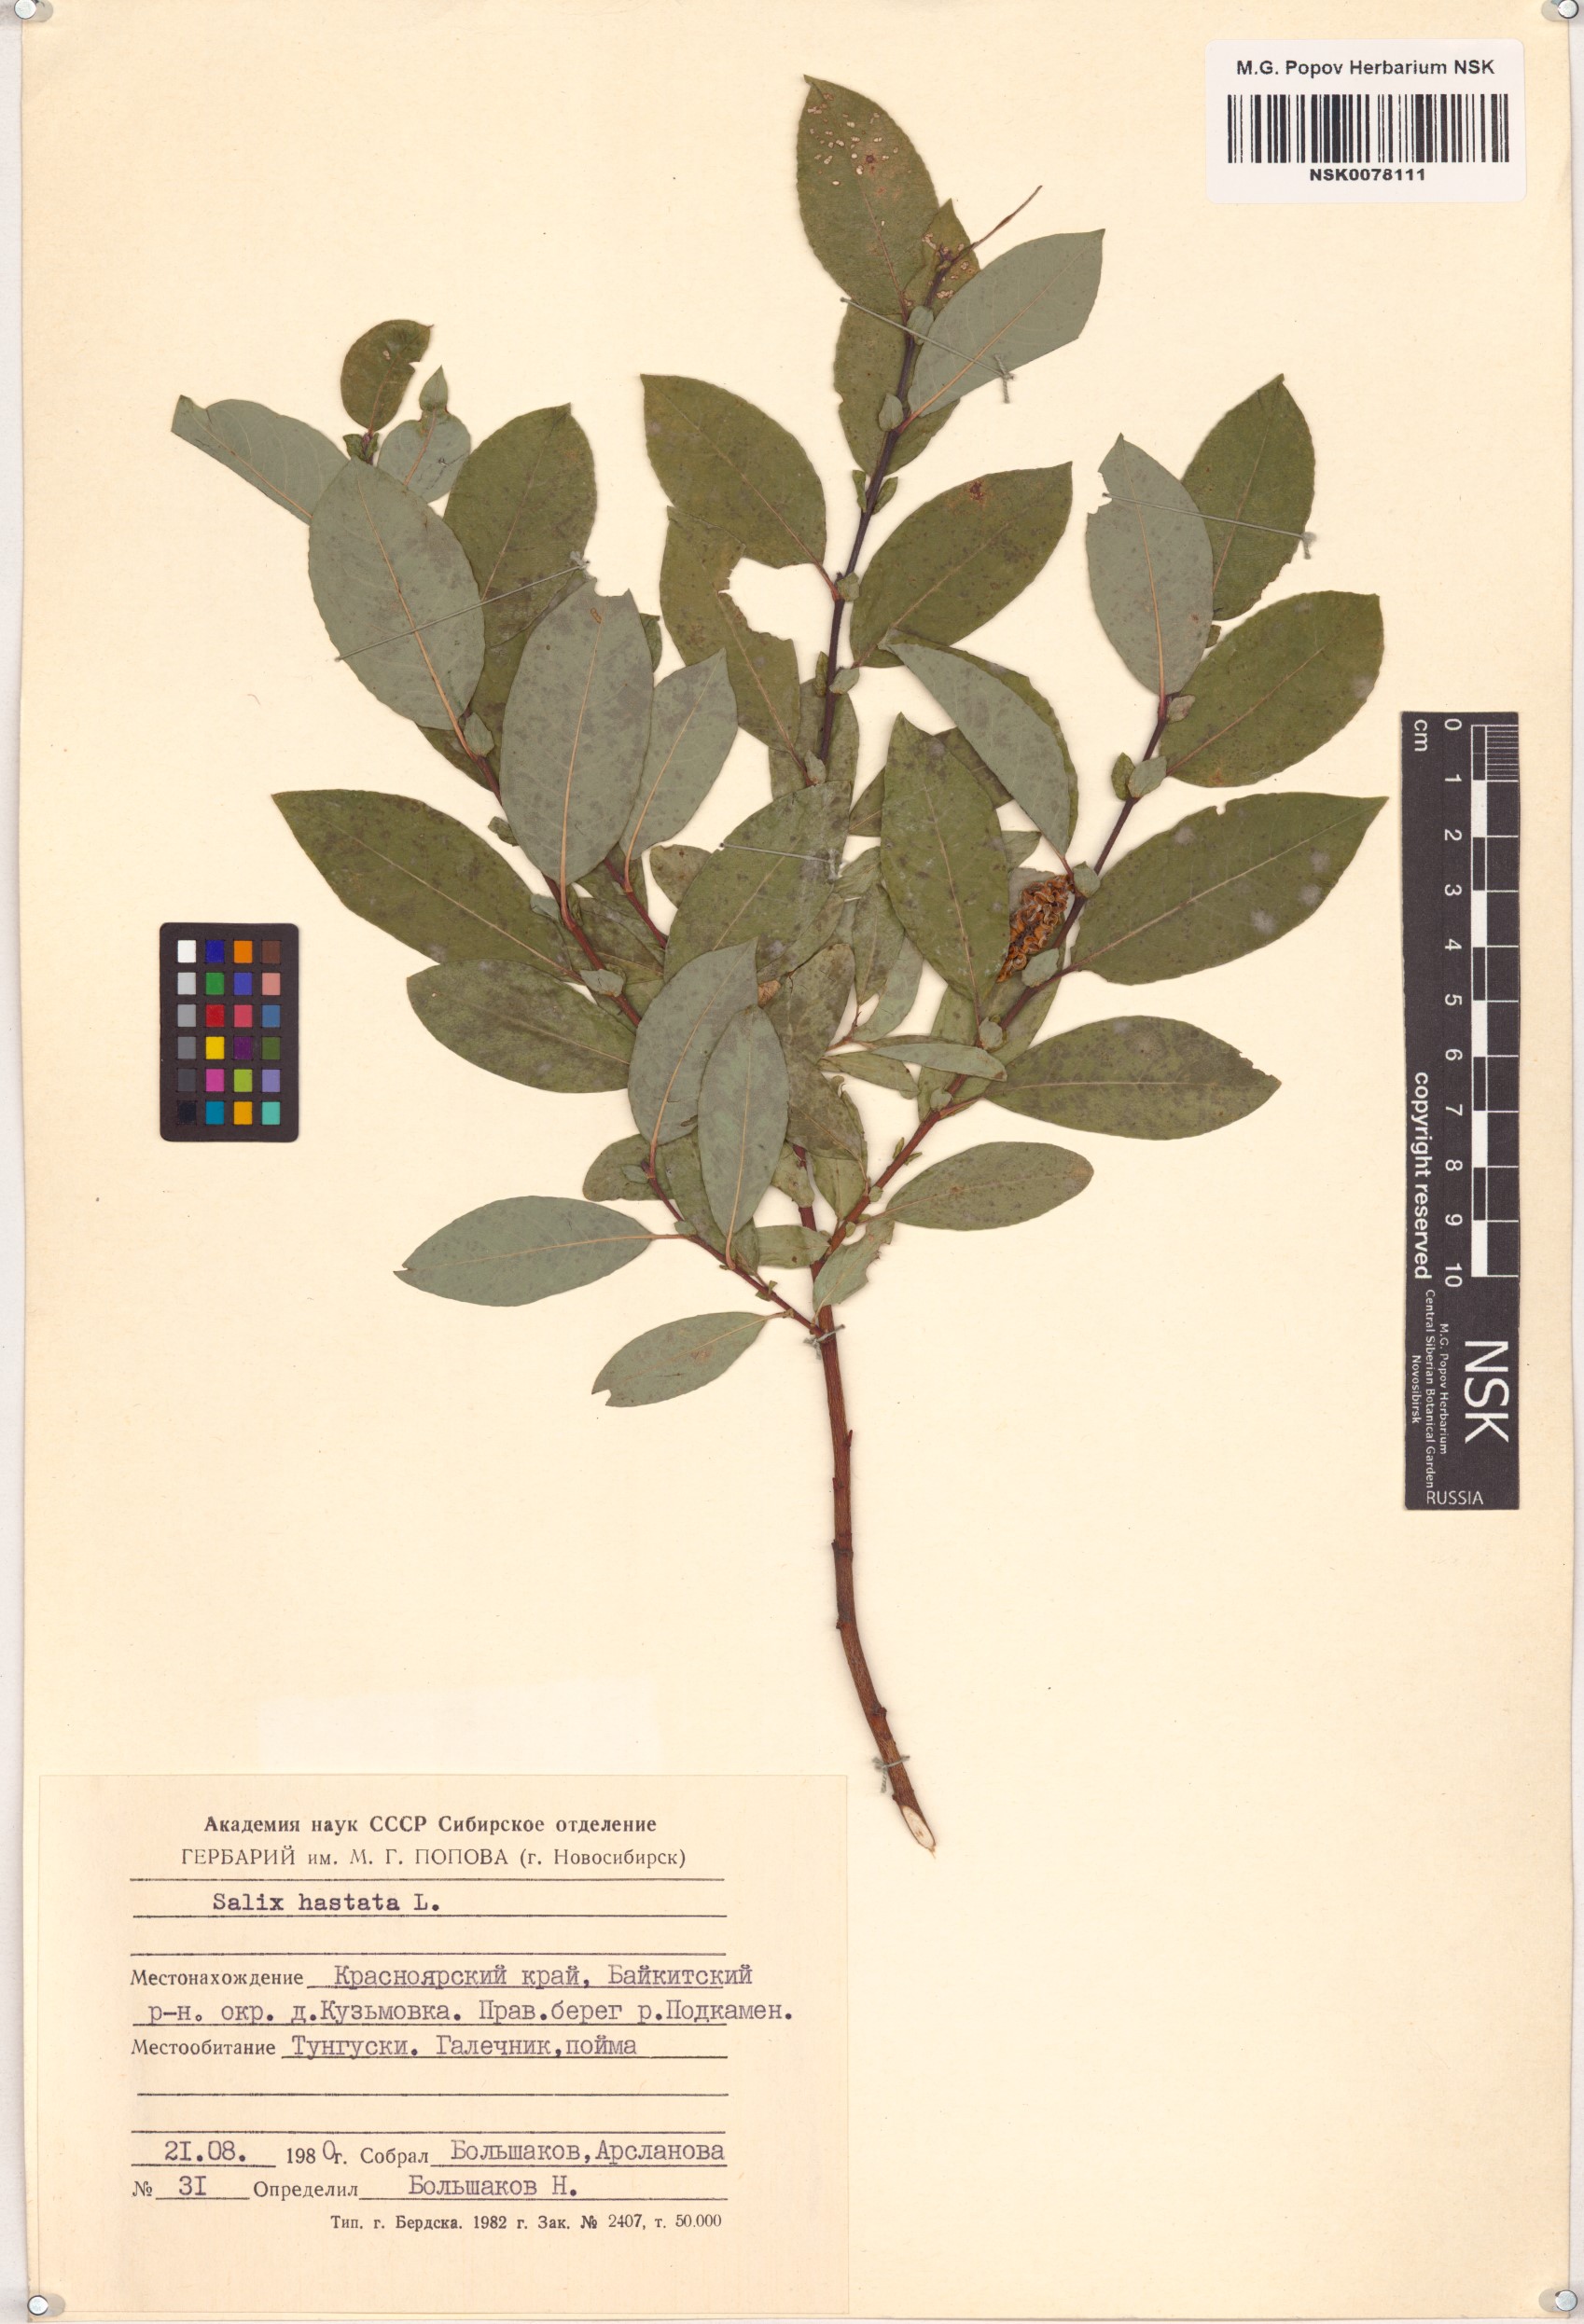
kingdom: Plantae
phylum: Tracheophyta
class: Magnoliopsida
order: Malpighiales
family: Salicaceae
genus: Salix
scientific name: Salix hastata
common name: Halberd willow
